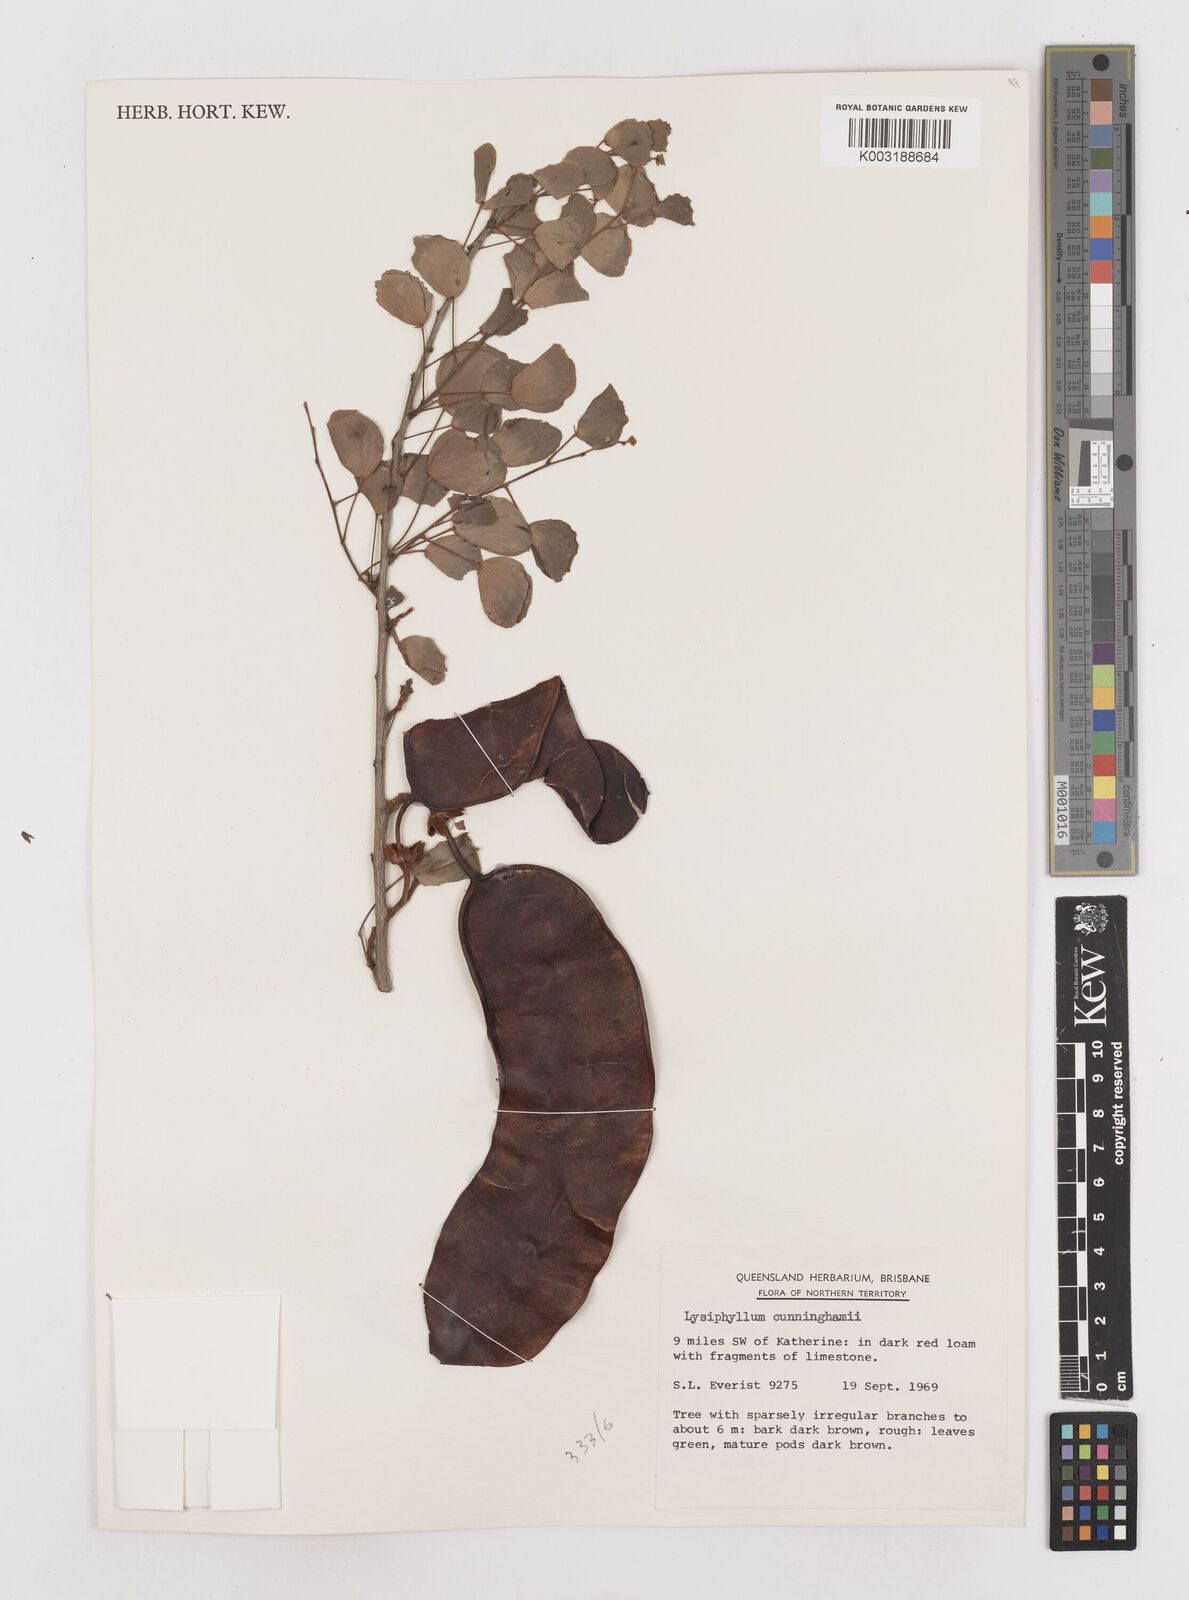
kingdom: Plantae
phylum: Tracheophyta
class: Magnoliopsida
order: Fabales
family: Fabaceae
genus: Lysiphyllum
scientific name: Lysiphyllum cunninghamii
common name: Kimberley bauhinia
